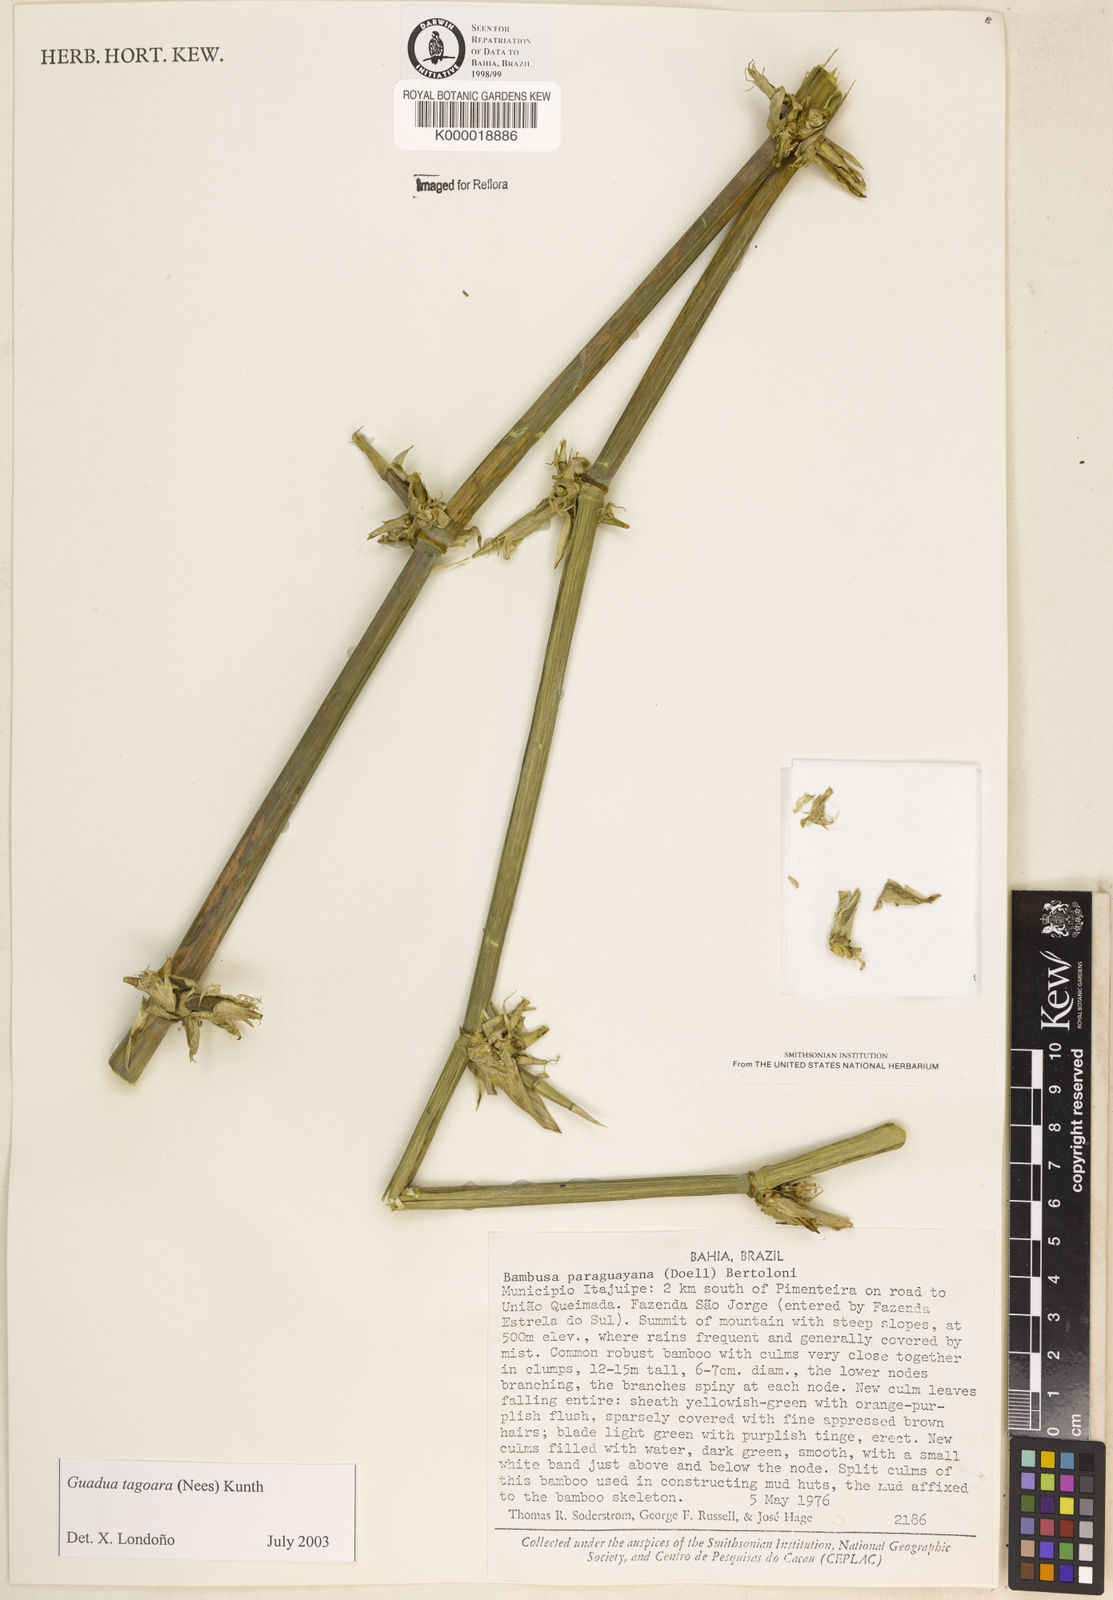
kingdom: Plantae
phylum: Tracheophyta
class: Liliopsida
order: Poales
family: Poaceae
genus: Guadua
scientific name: Guadua tagoara
